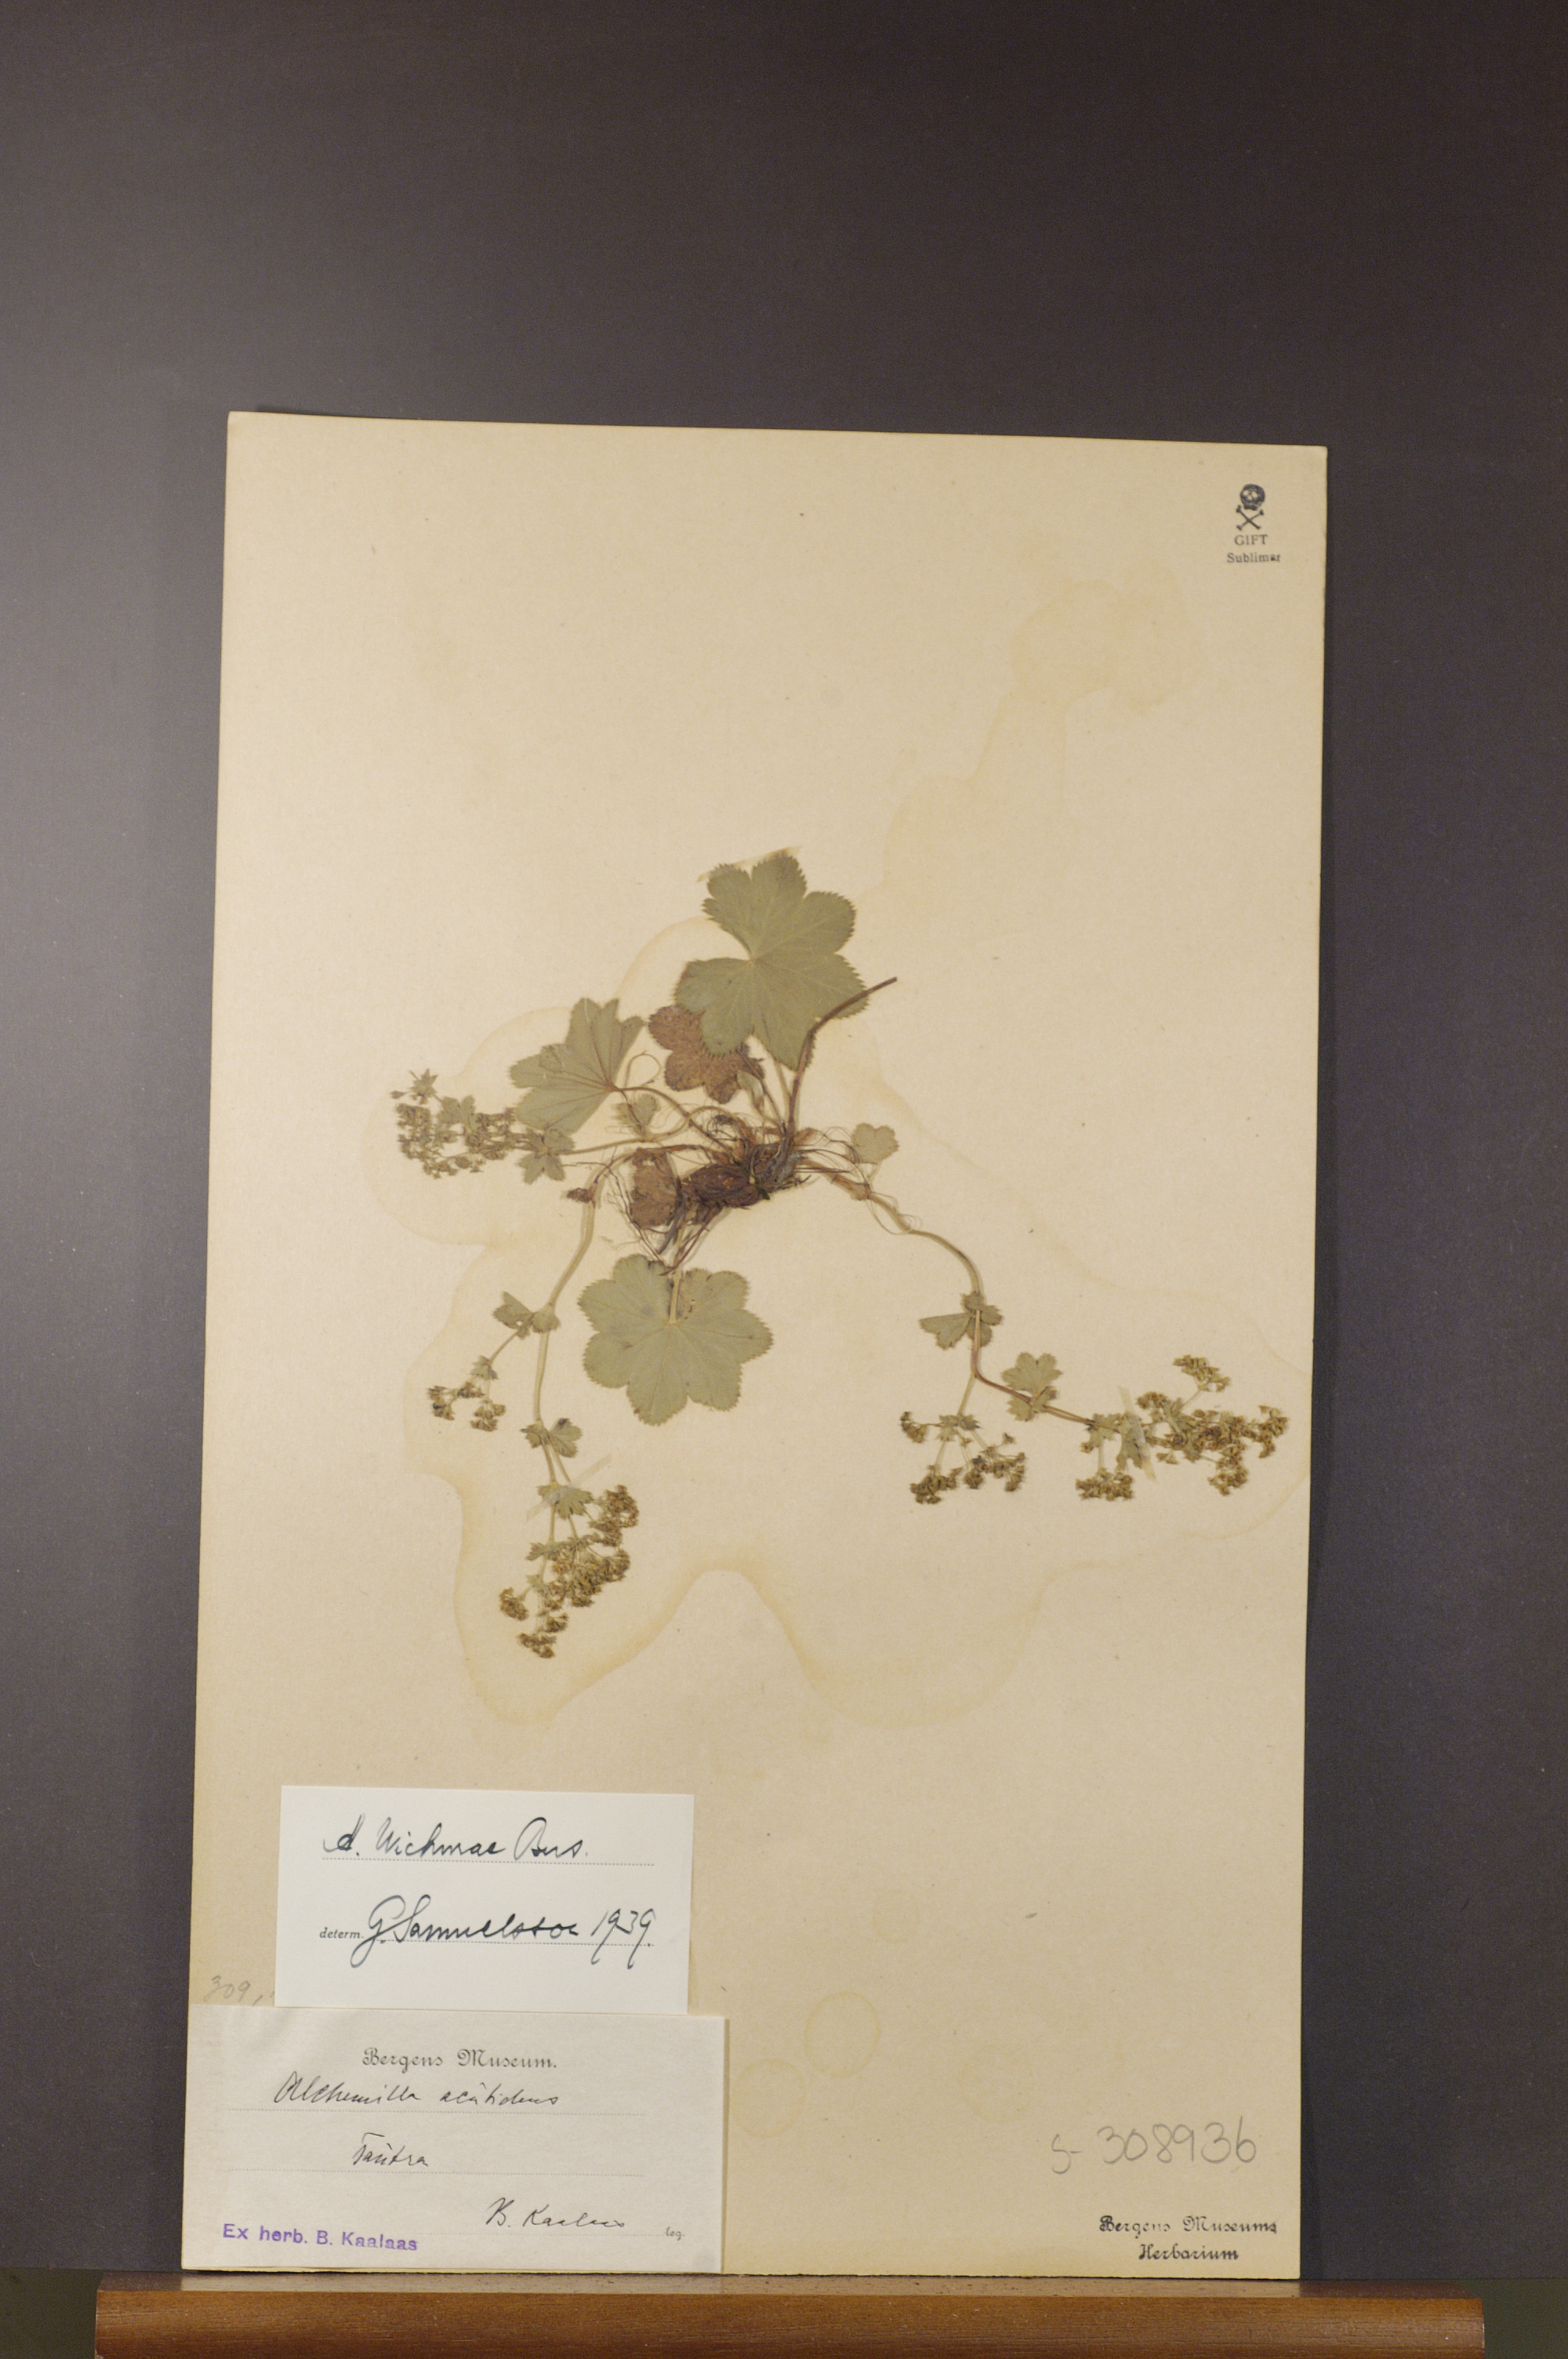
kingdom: Plantae
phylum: Tracheophyta
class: Magnoliopsida
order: Rosales
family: Rosaceae
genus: Alchemilla
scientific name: Alchemilla wichurae
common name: Rock lady's mantle
